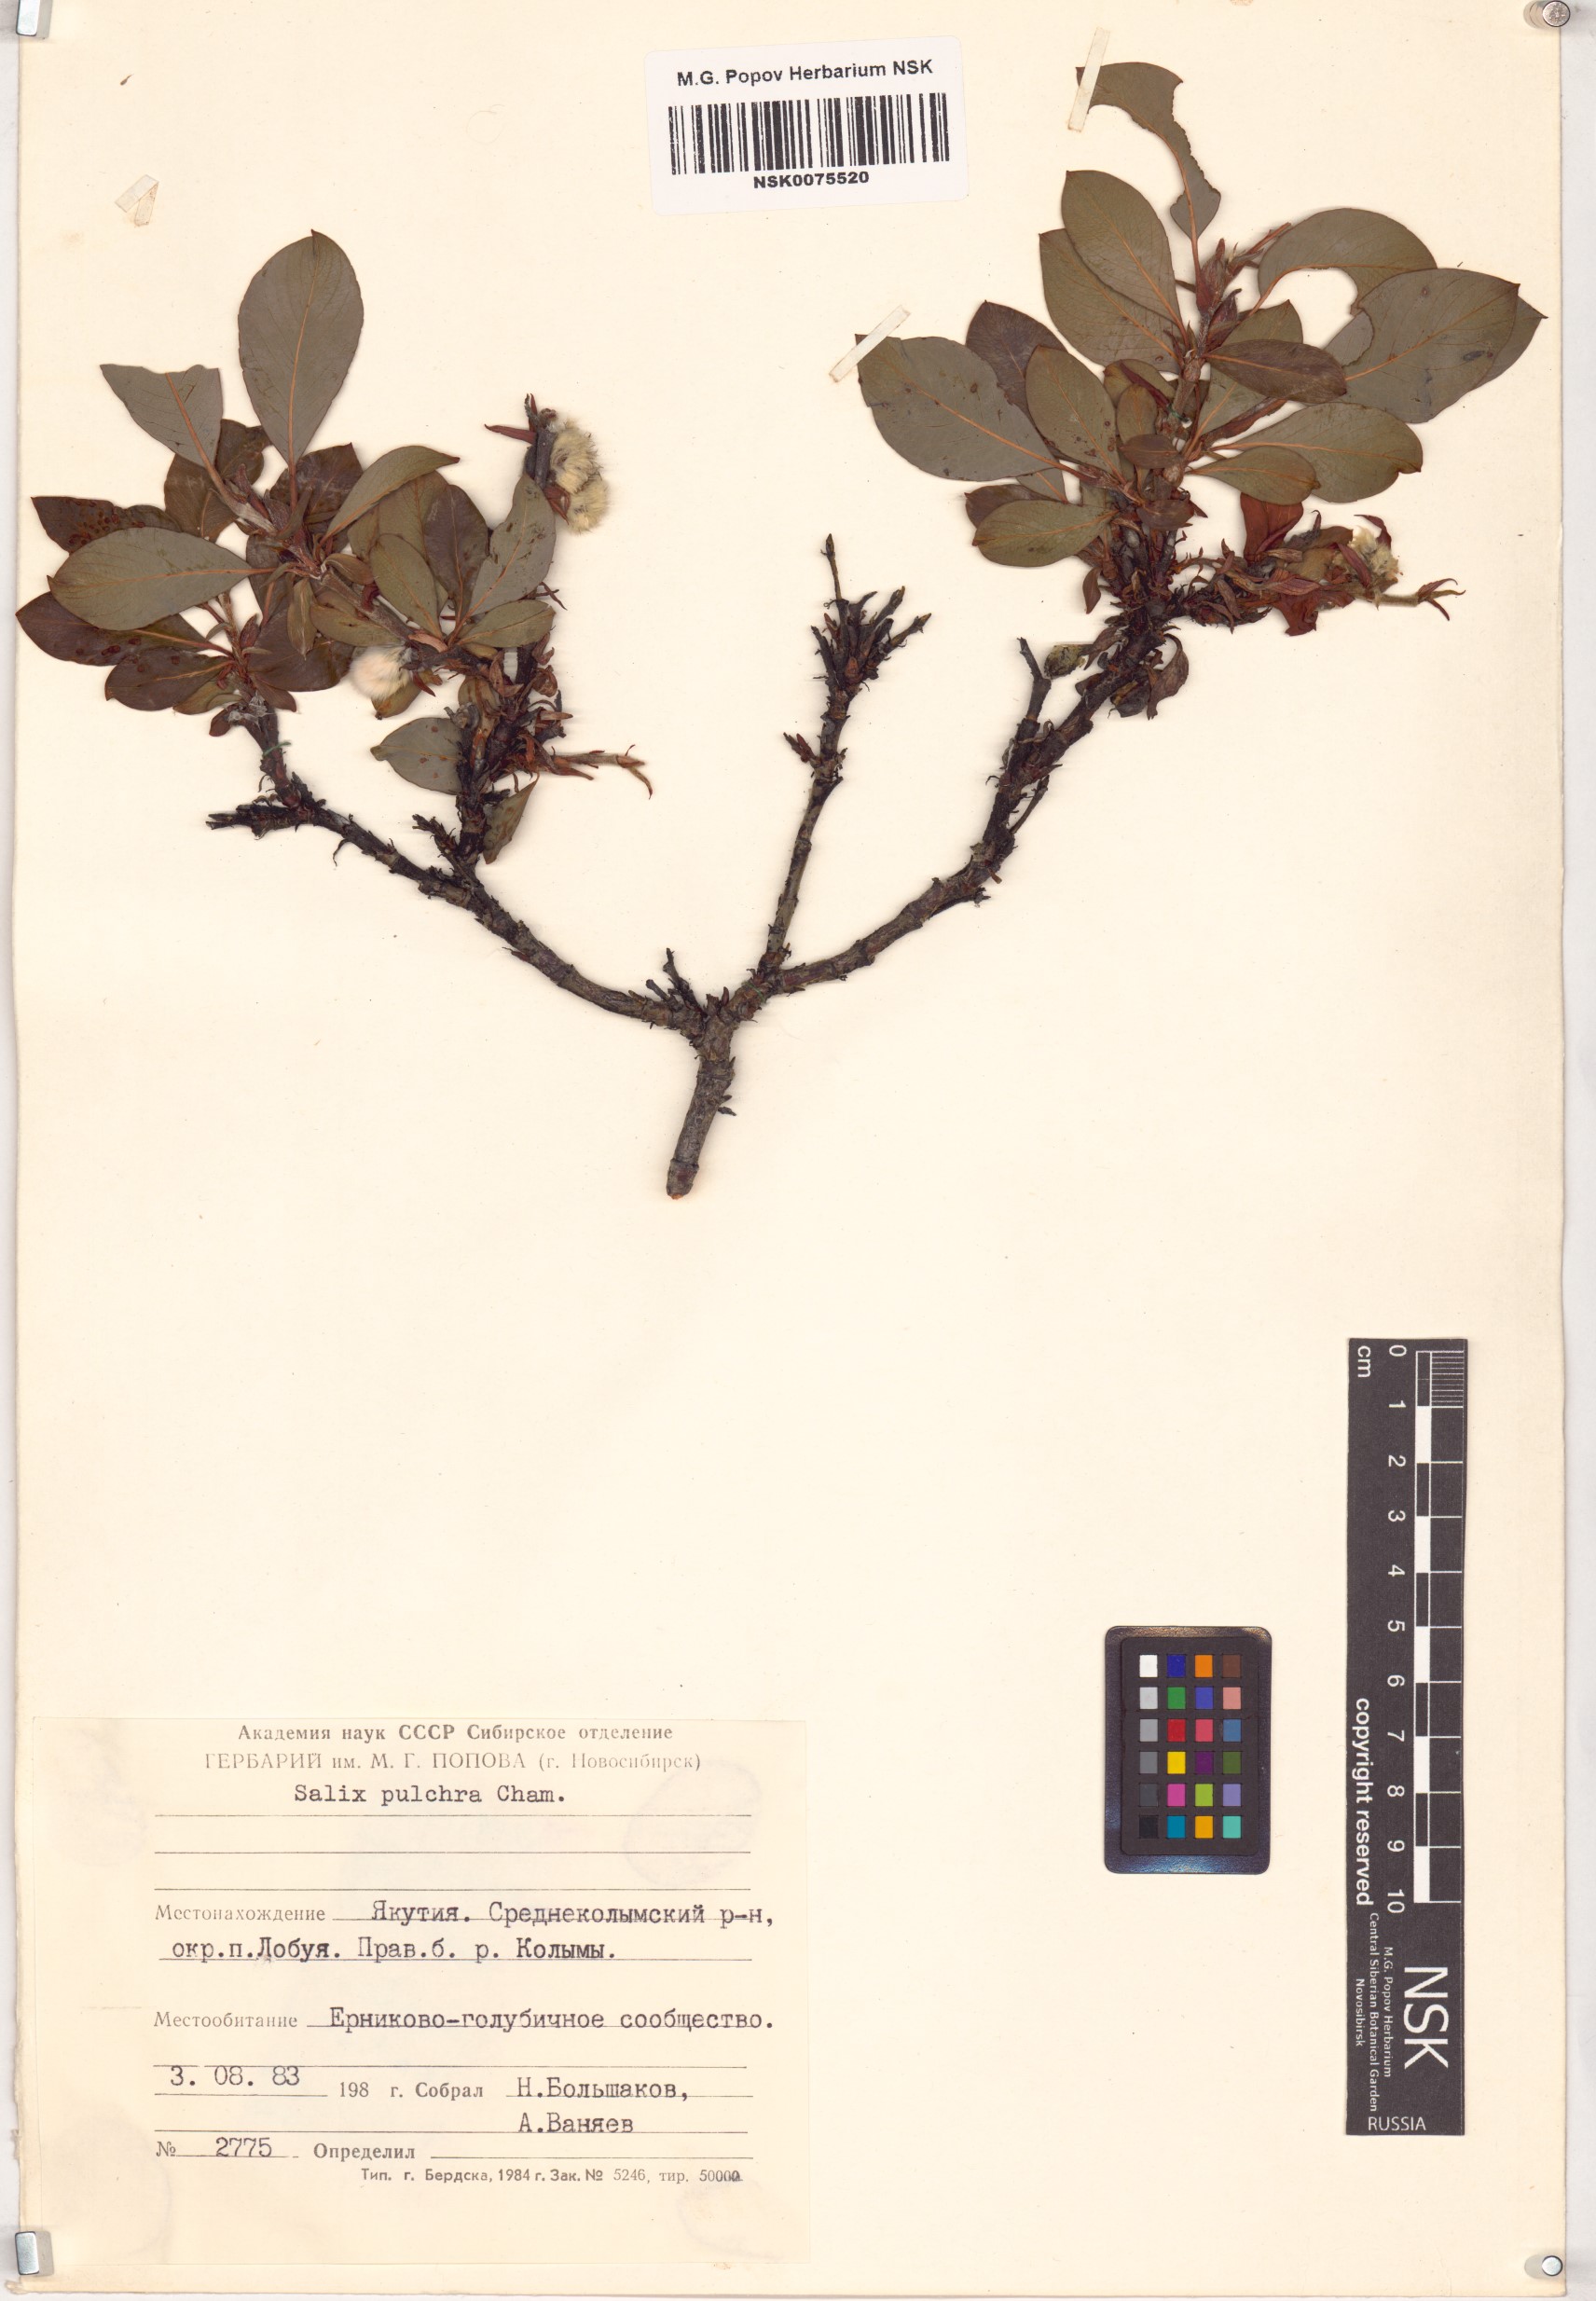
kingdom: Plantae
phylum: Tracheophyta
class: Magnoliopsida
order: Malpighiales
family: Salicaceae
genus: Salix
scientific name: Salix pulchra
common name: Diamond-leaved willow
